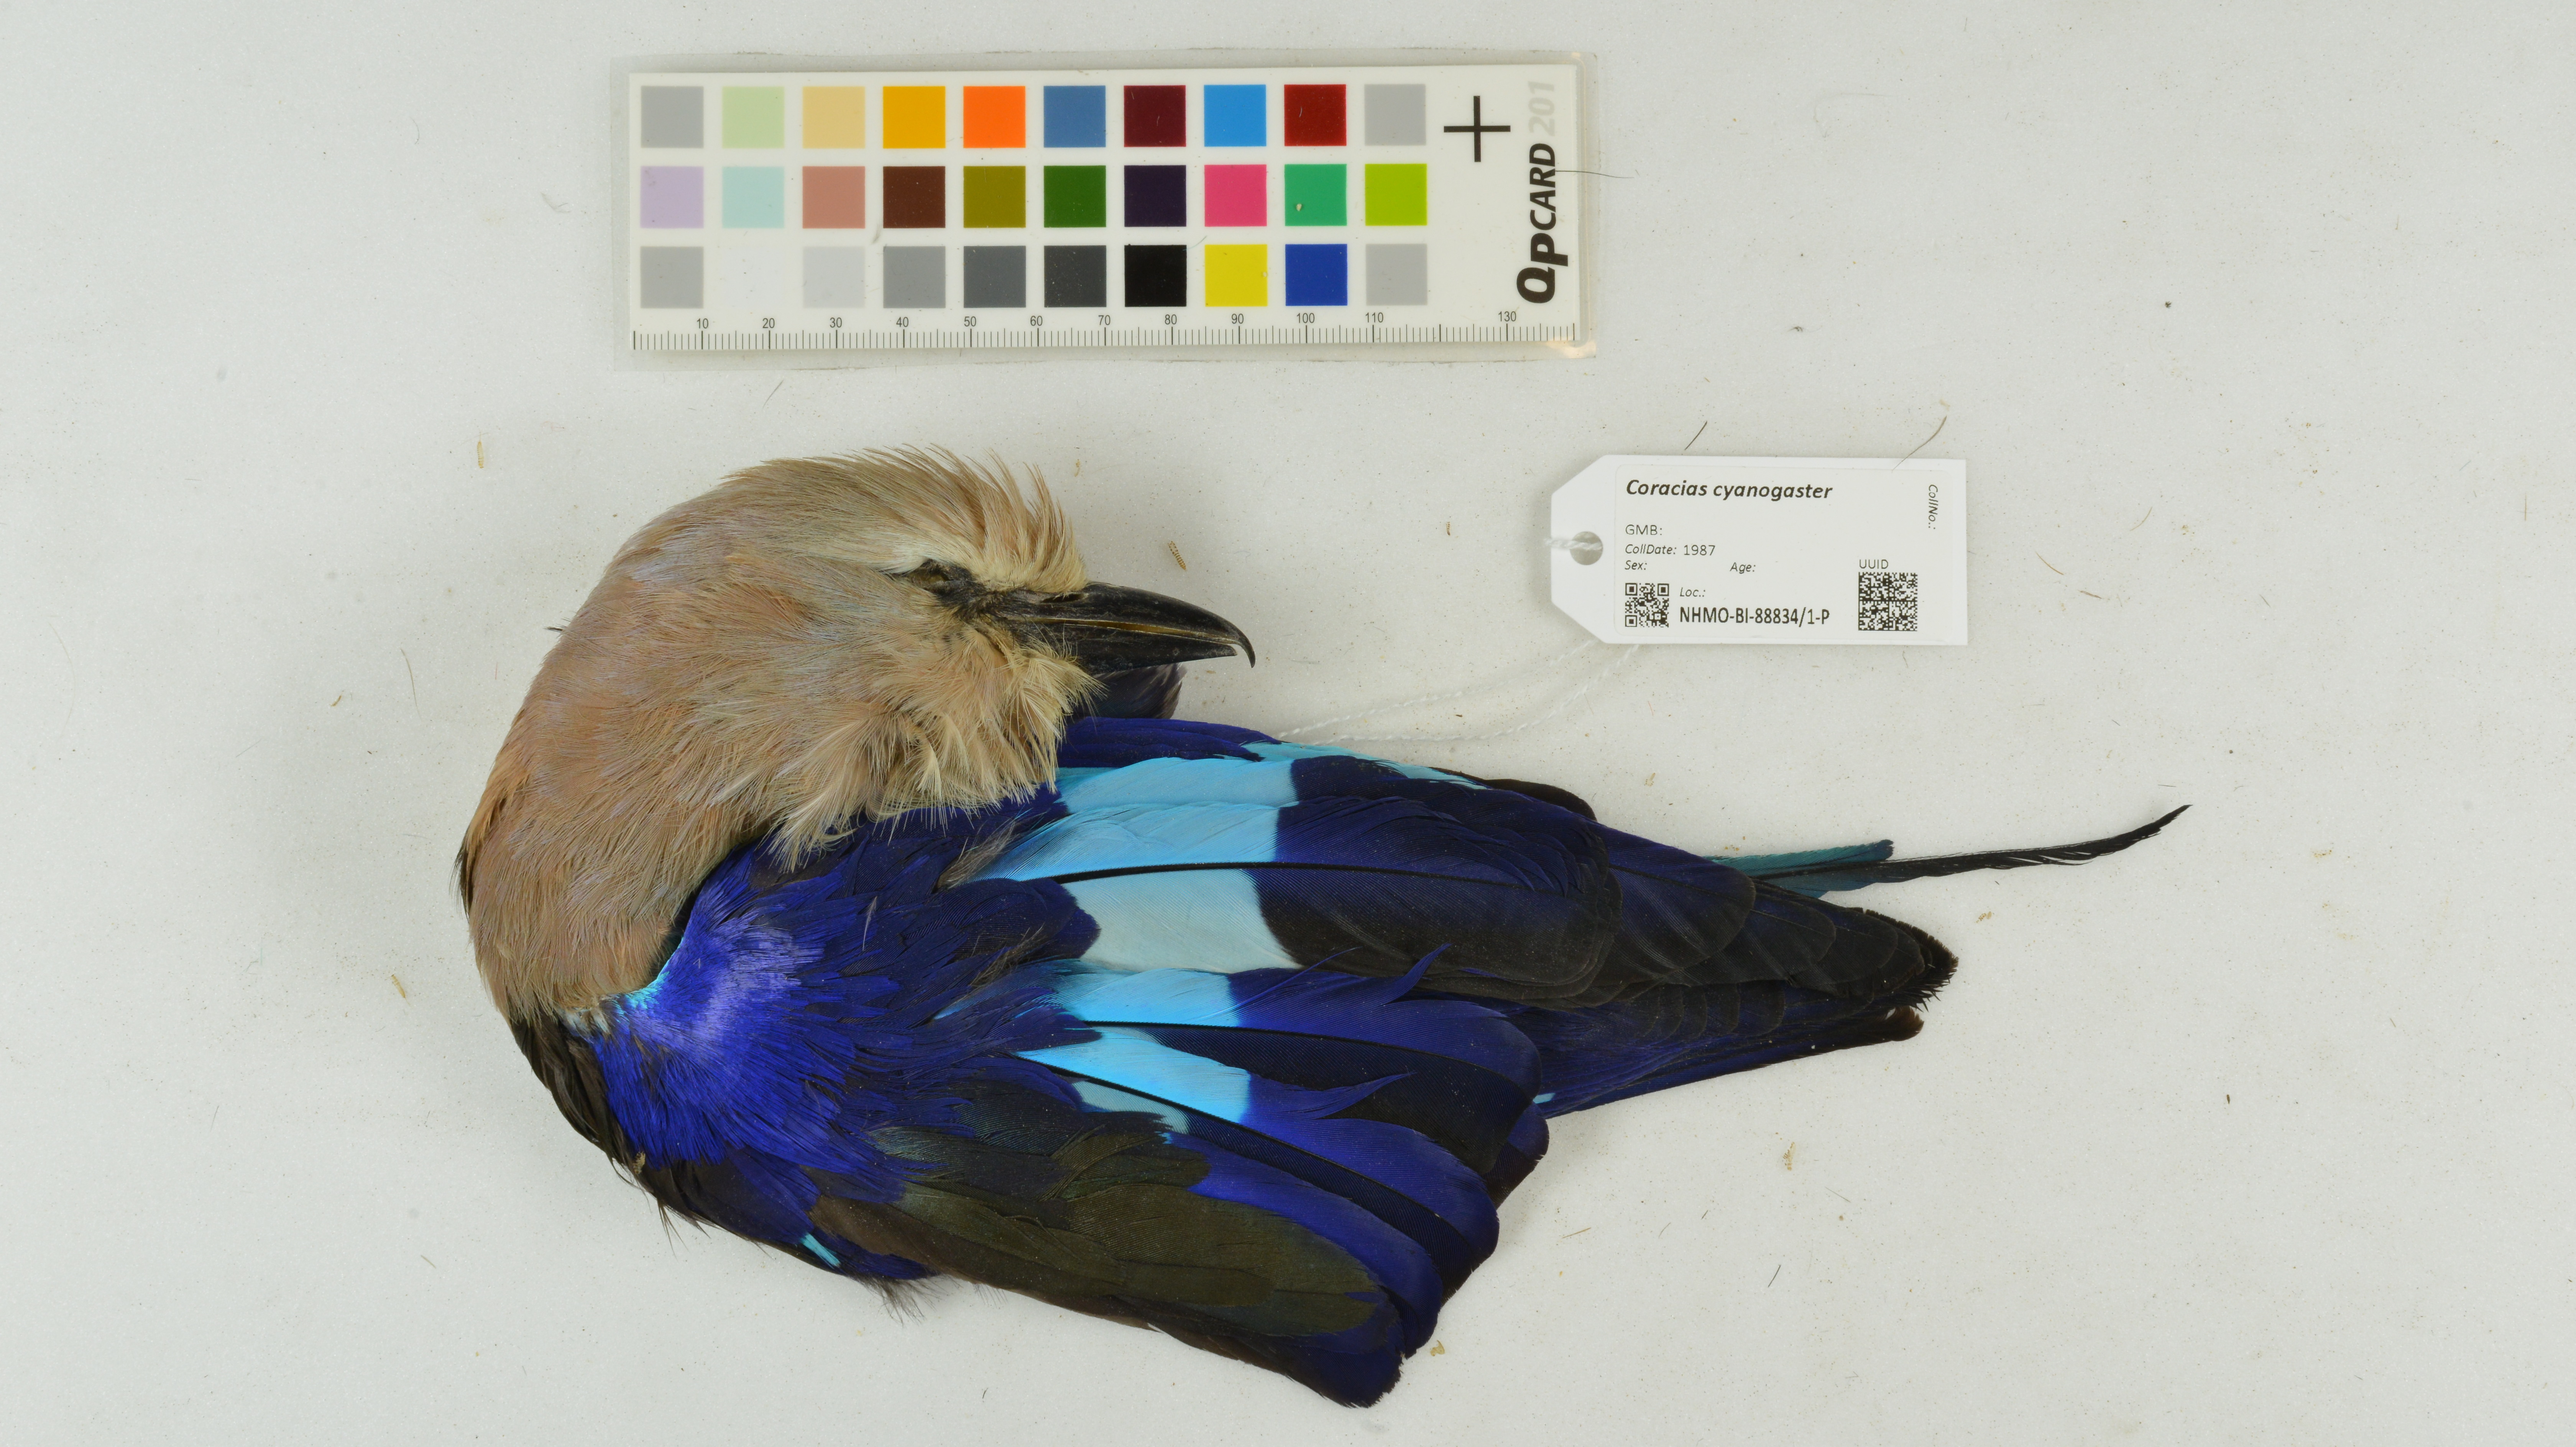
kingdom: Animalia
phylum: Chordata
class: Aves
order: Coraciiformes
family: Coraciidae
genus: Coracias
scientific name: Coracias cyanogaster
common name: Blue-bellied roller
